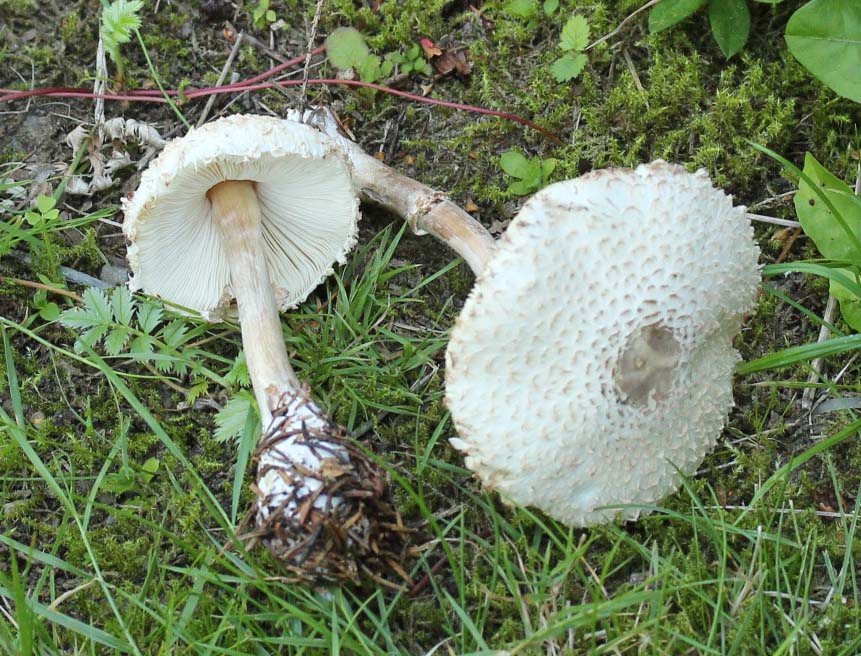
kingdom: Fungi
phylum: Basidiomycota
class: Agaricomycetes
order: Agaricales
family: Agaricaceae
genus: Leucoagaricus
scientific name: Leucoagaricus nympharum
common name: gran-silkehat
